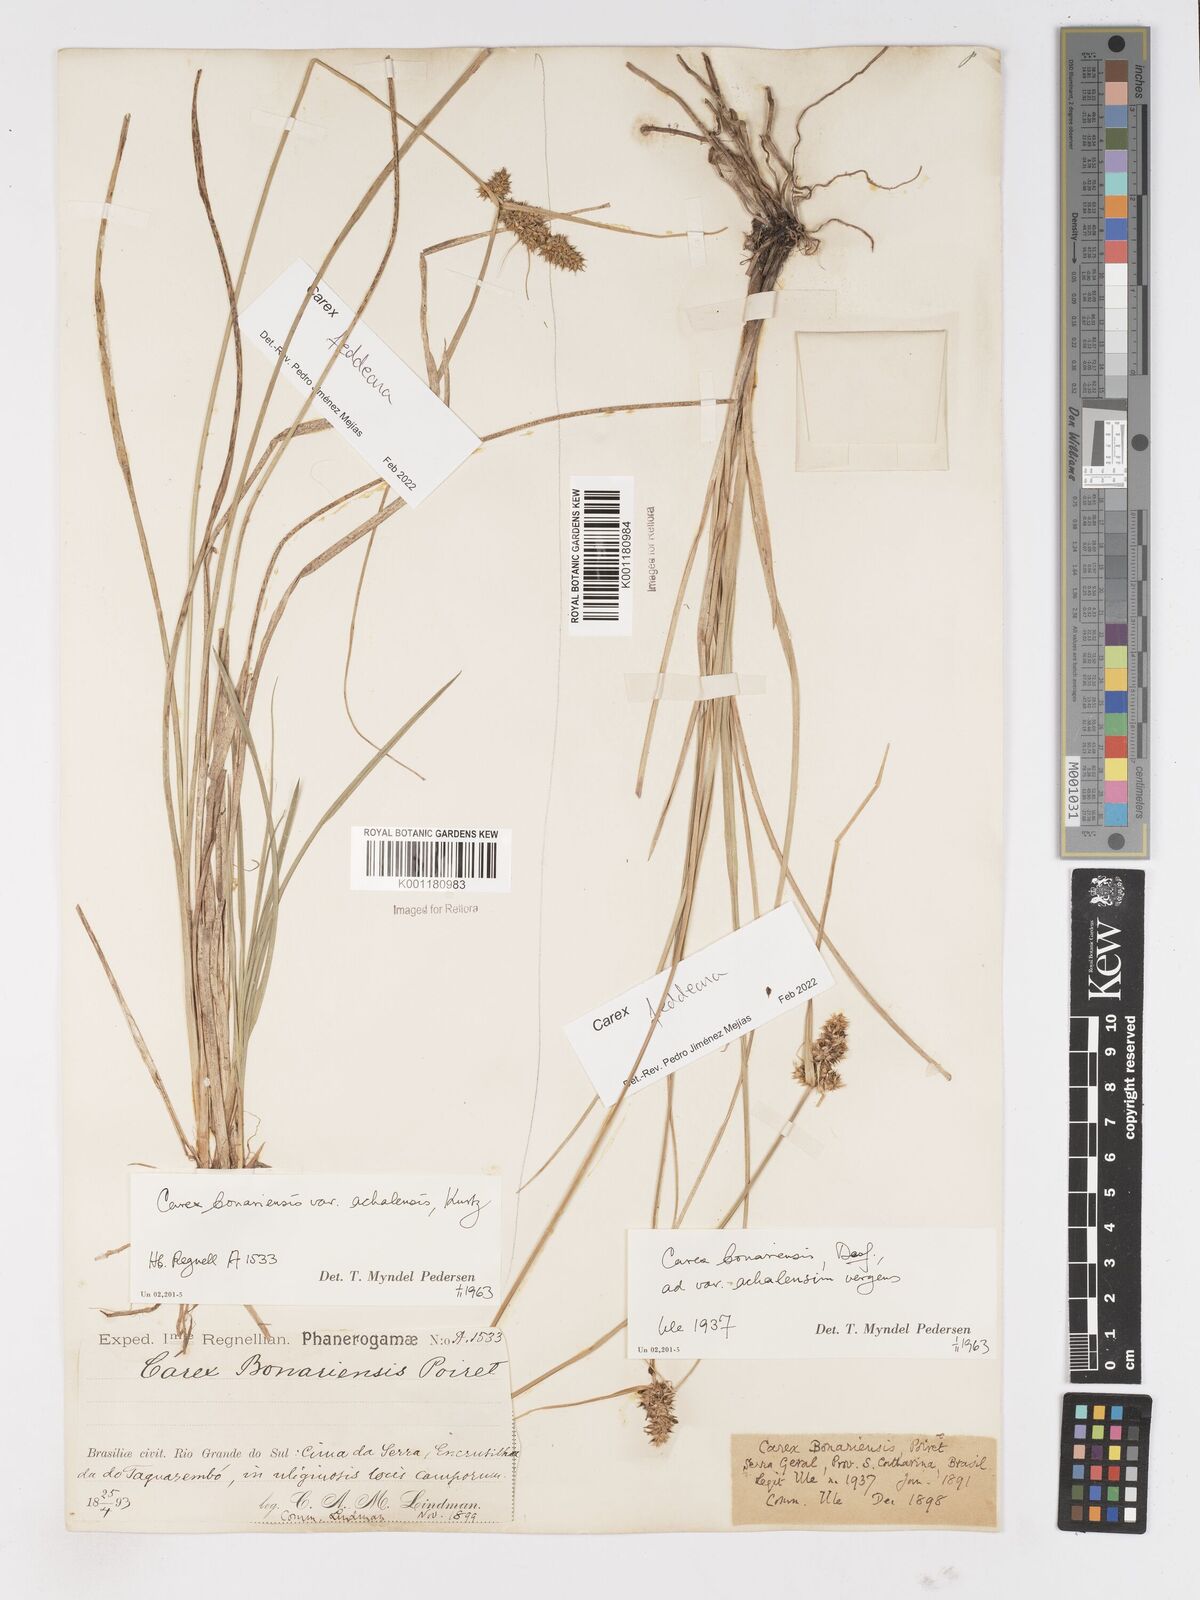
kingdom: Plantae
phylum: Tracheophyta
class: Liliopsida
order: Poales
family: Cyperaceae
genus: Carex
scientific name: Carex bonariensis
